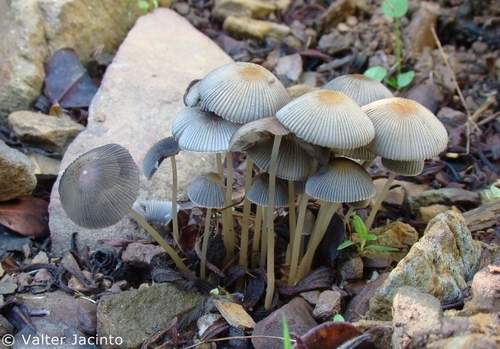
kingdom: Fungi
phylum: Basidiomycota
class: Agaricomycetes
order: Agaricales
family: Psathyrellaceae
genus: Parasola
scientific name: Parasola plicatilis
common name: Pleated inkcap
